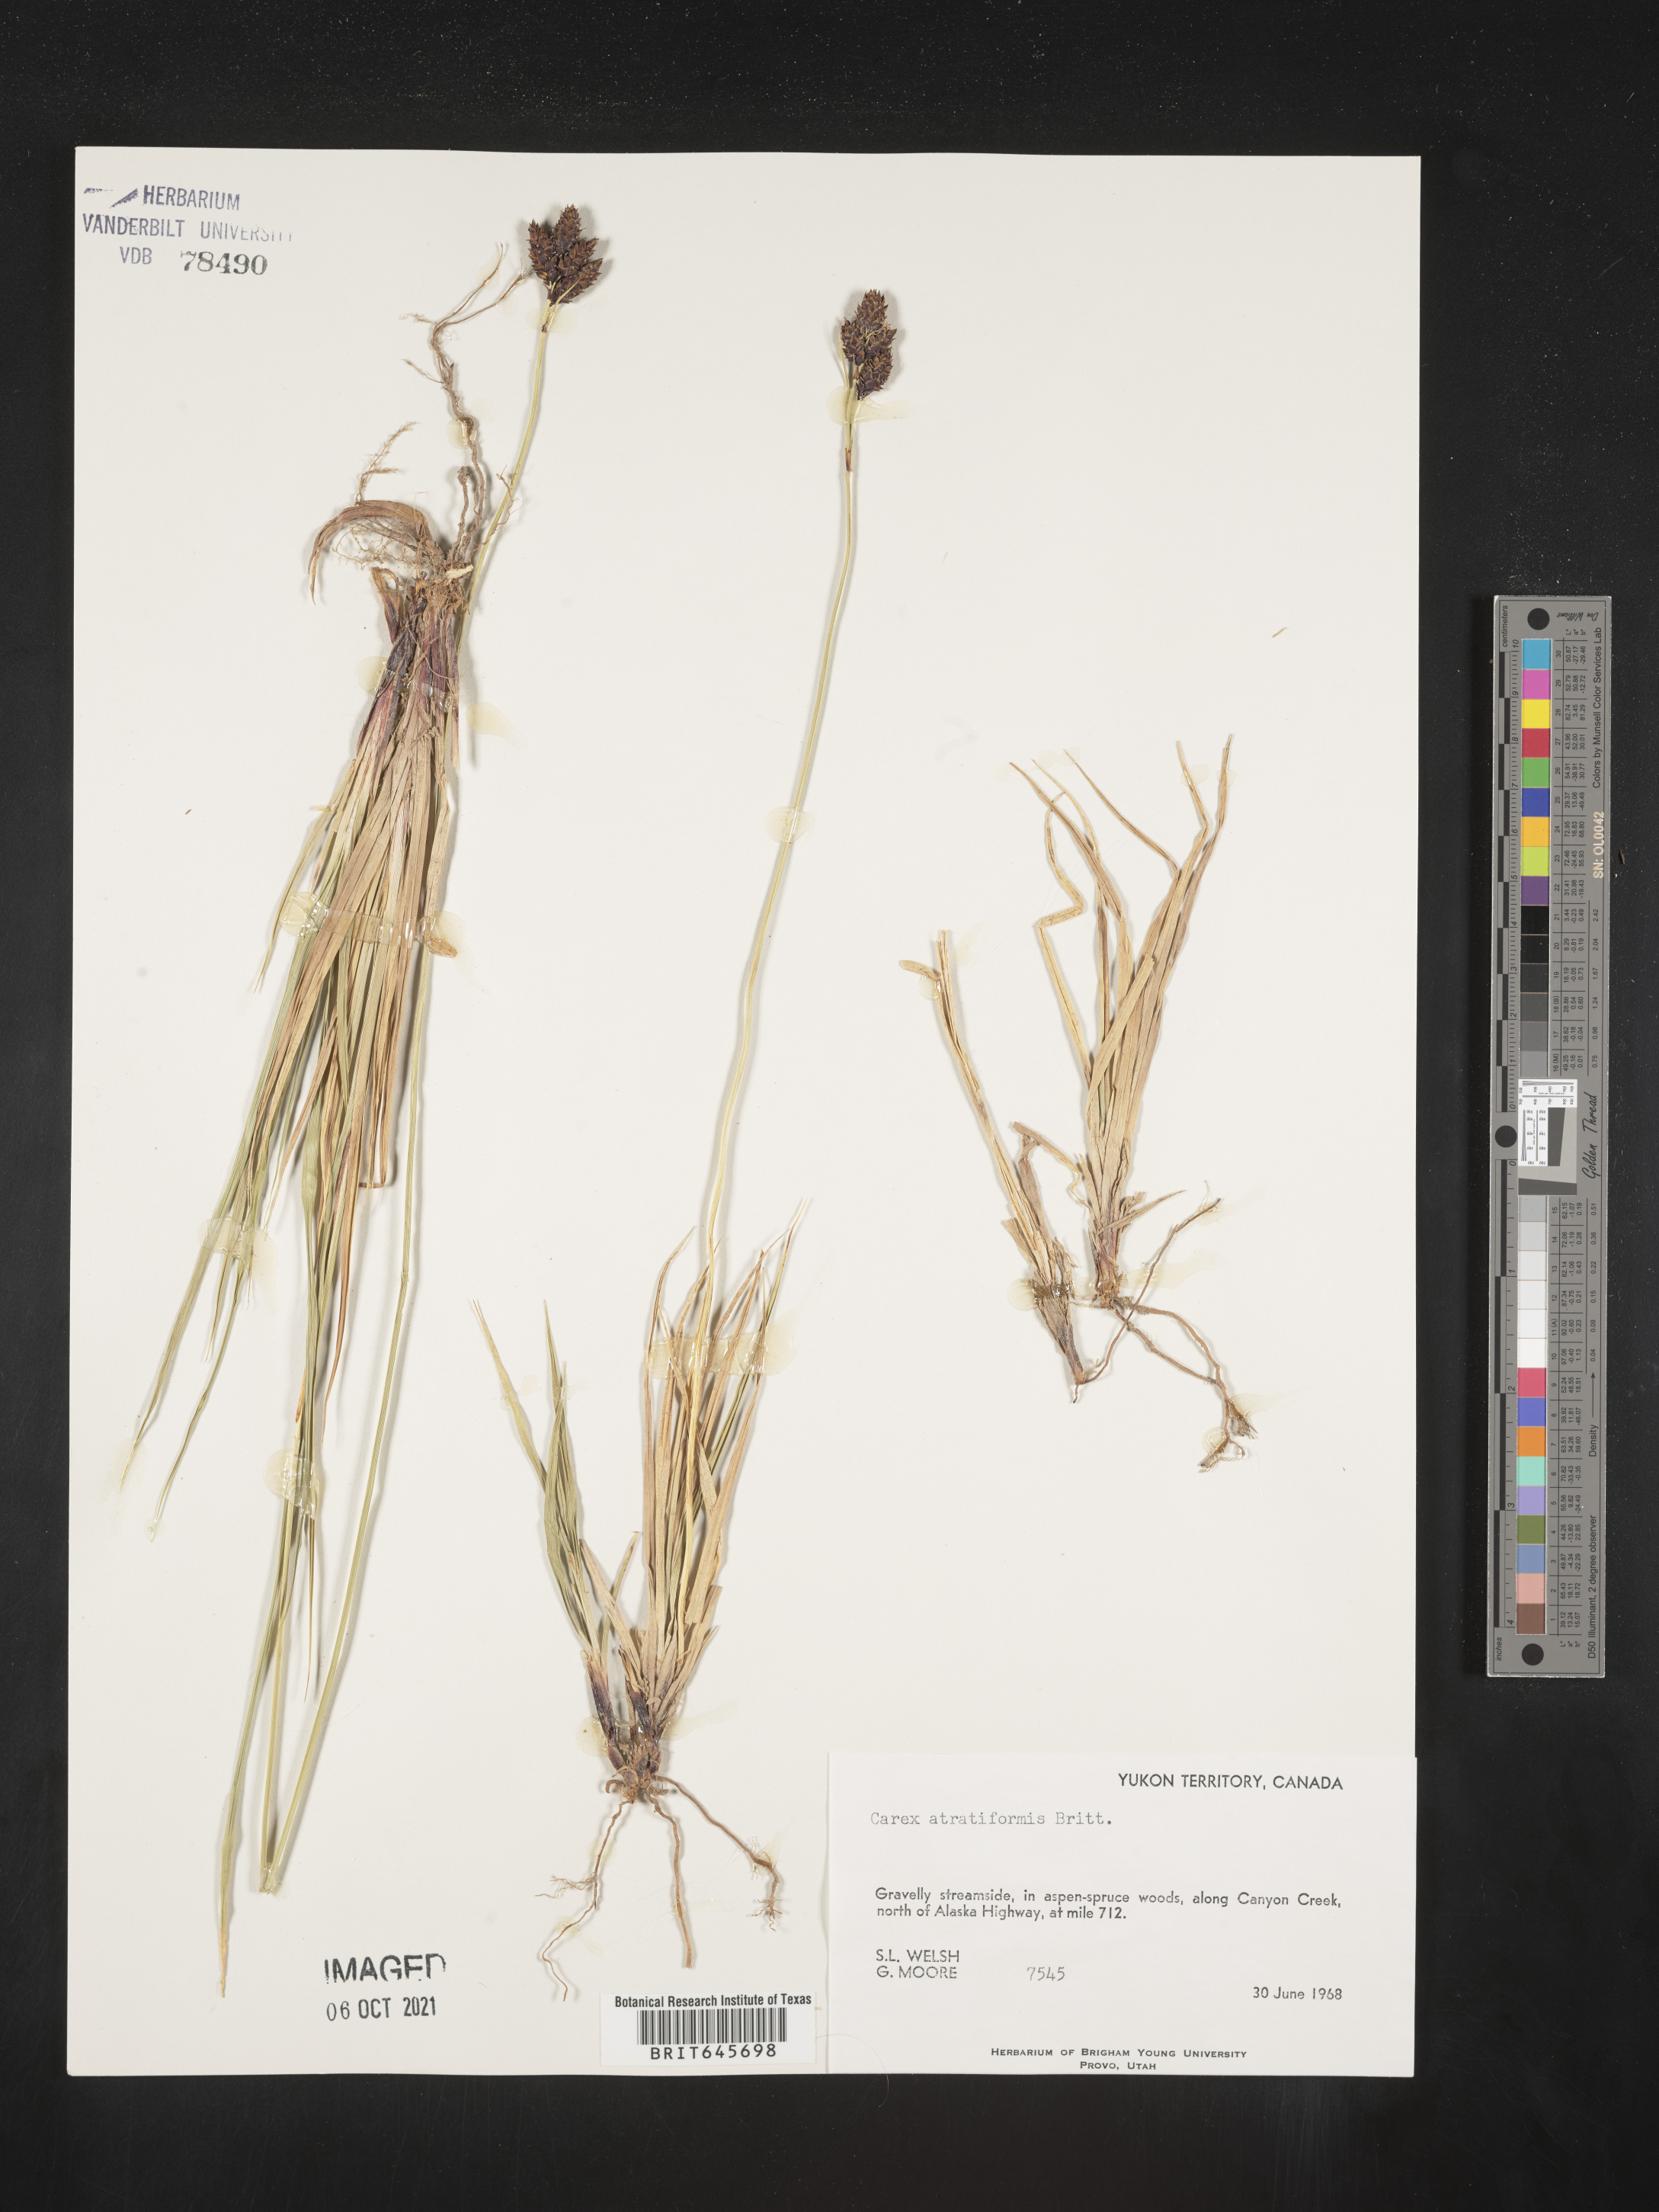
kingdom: Plantae
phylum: Tracheophyta
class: Liliopsida
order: Poales
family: Cyperaceae
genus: Carex
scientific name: Carex atratiformis
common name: Black sedge
